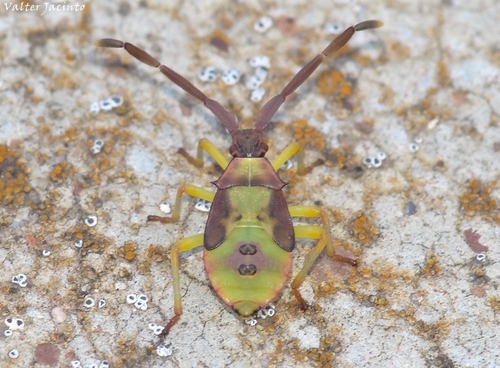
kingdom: Animalia
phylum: Arthropoda
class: Insecta
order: Hemiptera
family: Coreidae
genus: Plinachtus
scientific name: Plinachtus imitator
